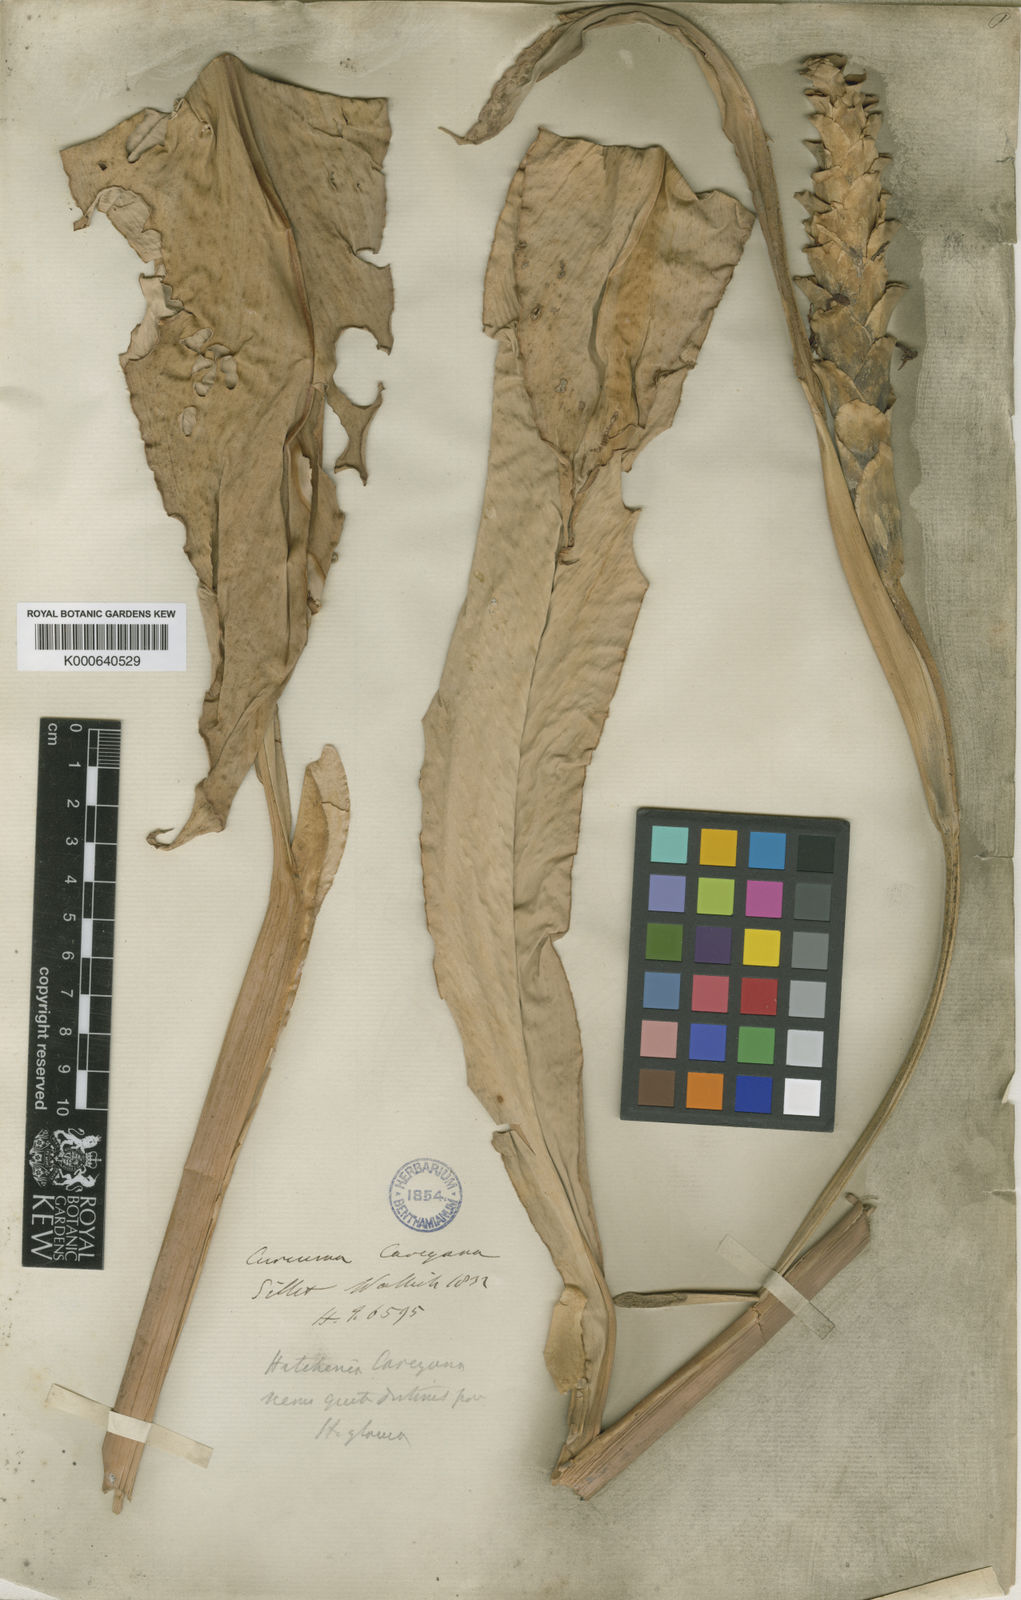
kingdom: Plantae
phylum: Tracheophyta
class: Liliopsida
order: Zingiberales
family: Zingiberaceae
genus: Larsenianthus
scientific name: Larsenianthus careyanus
